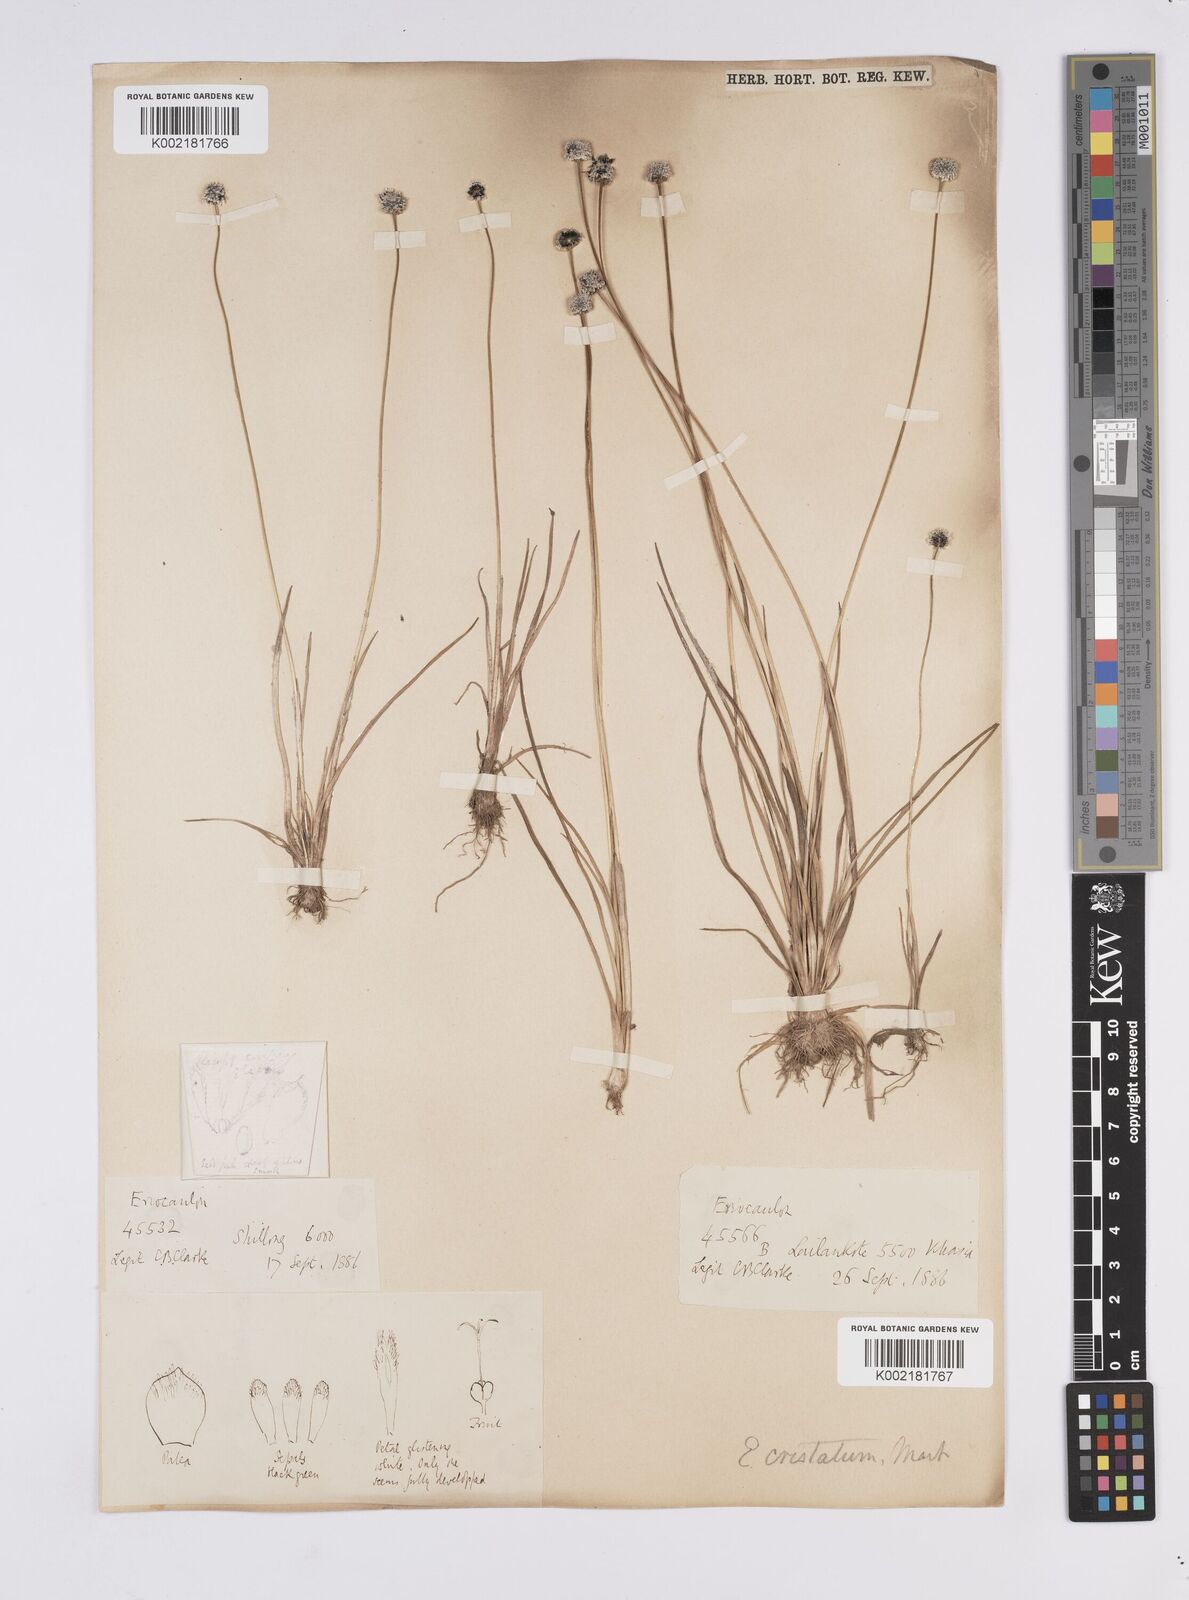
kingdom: Plantae
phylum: Tracheophyta
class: Liliopsida
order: Poales
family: Eriocaulaceae
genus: Eriocaulon
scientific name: Eriocaulon cristatum
